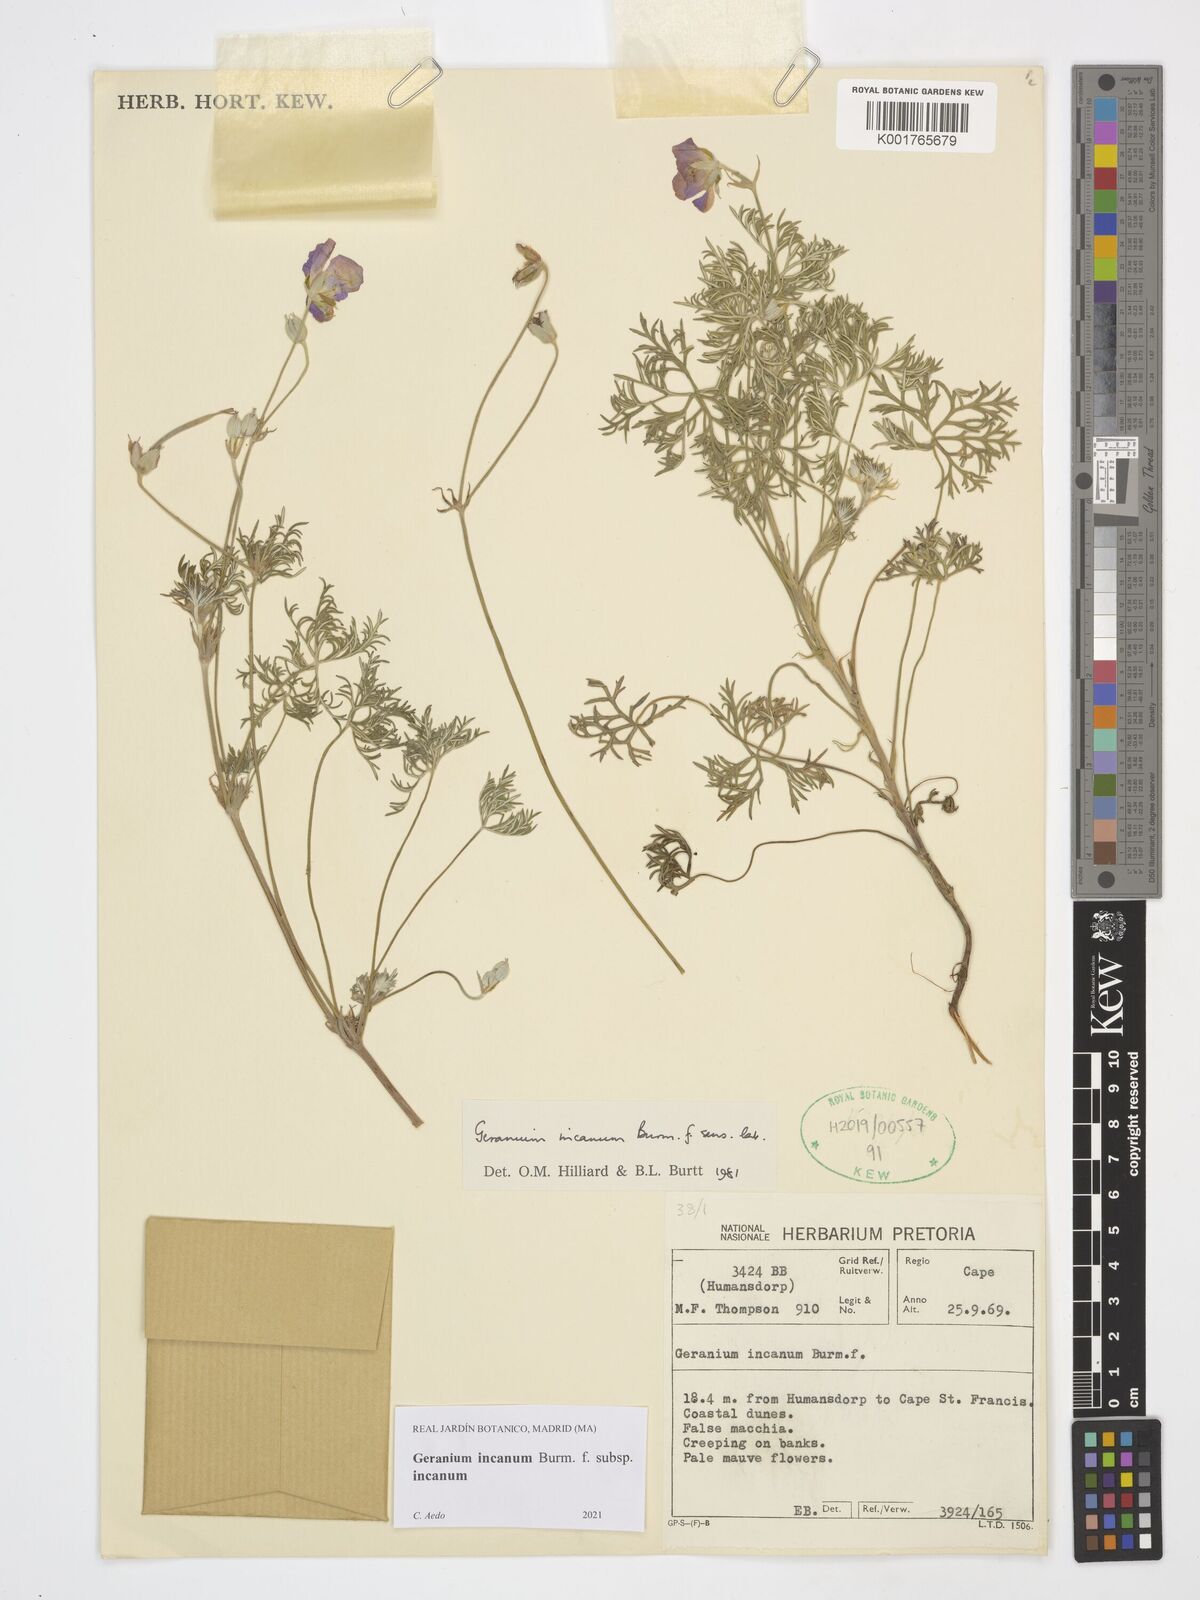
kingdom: Plantae
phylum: Tracheophyta
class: Magnoliopsida
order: Geraniales
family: Geraniaceae
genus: Geranium
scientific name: Geranium incanum
